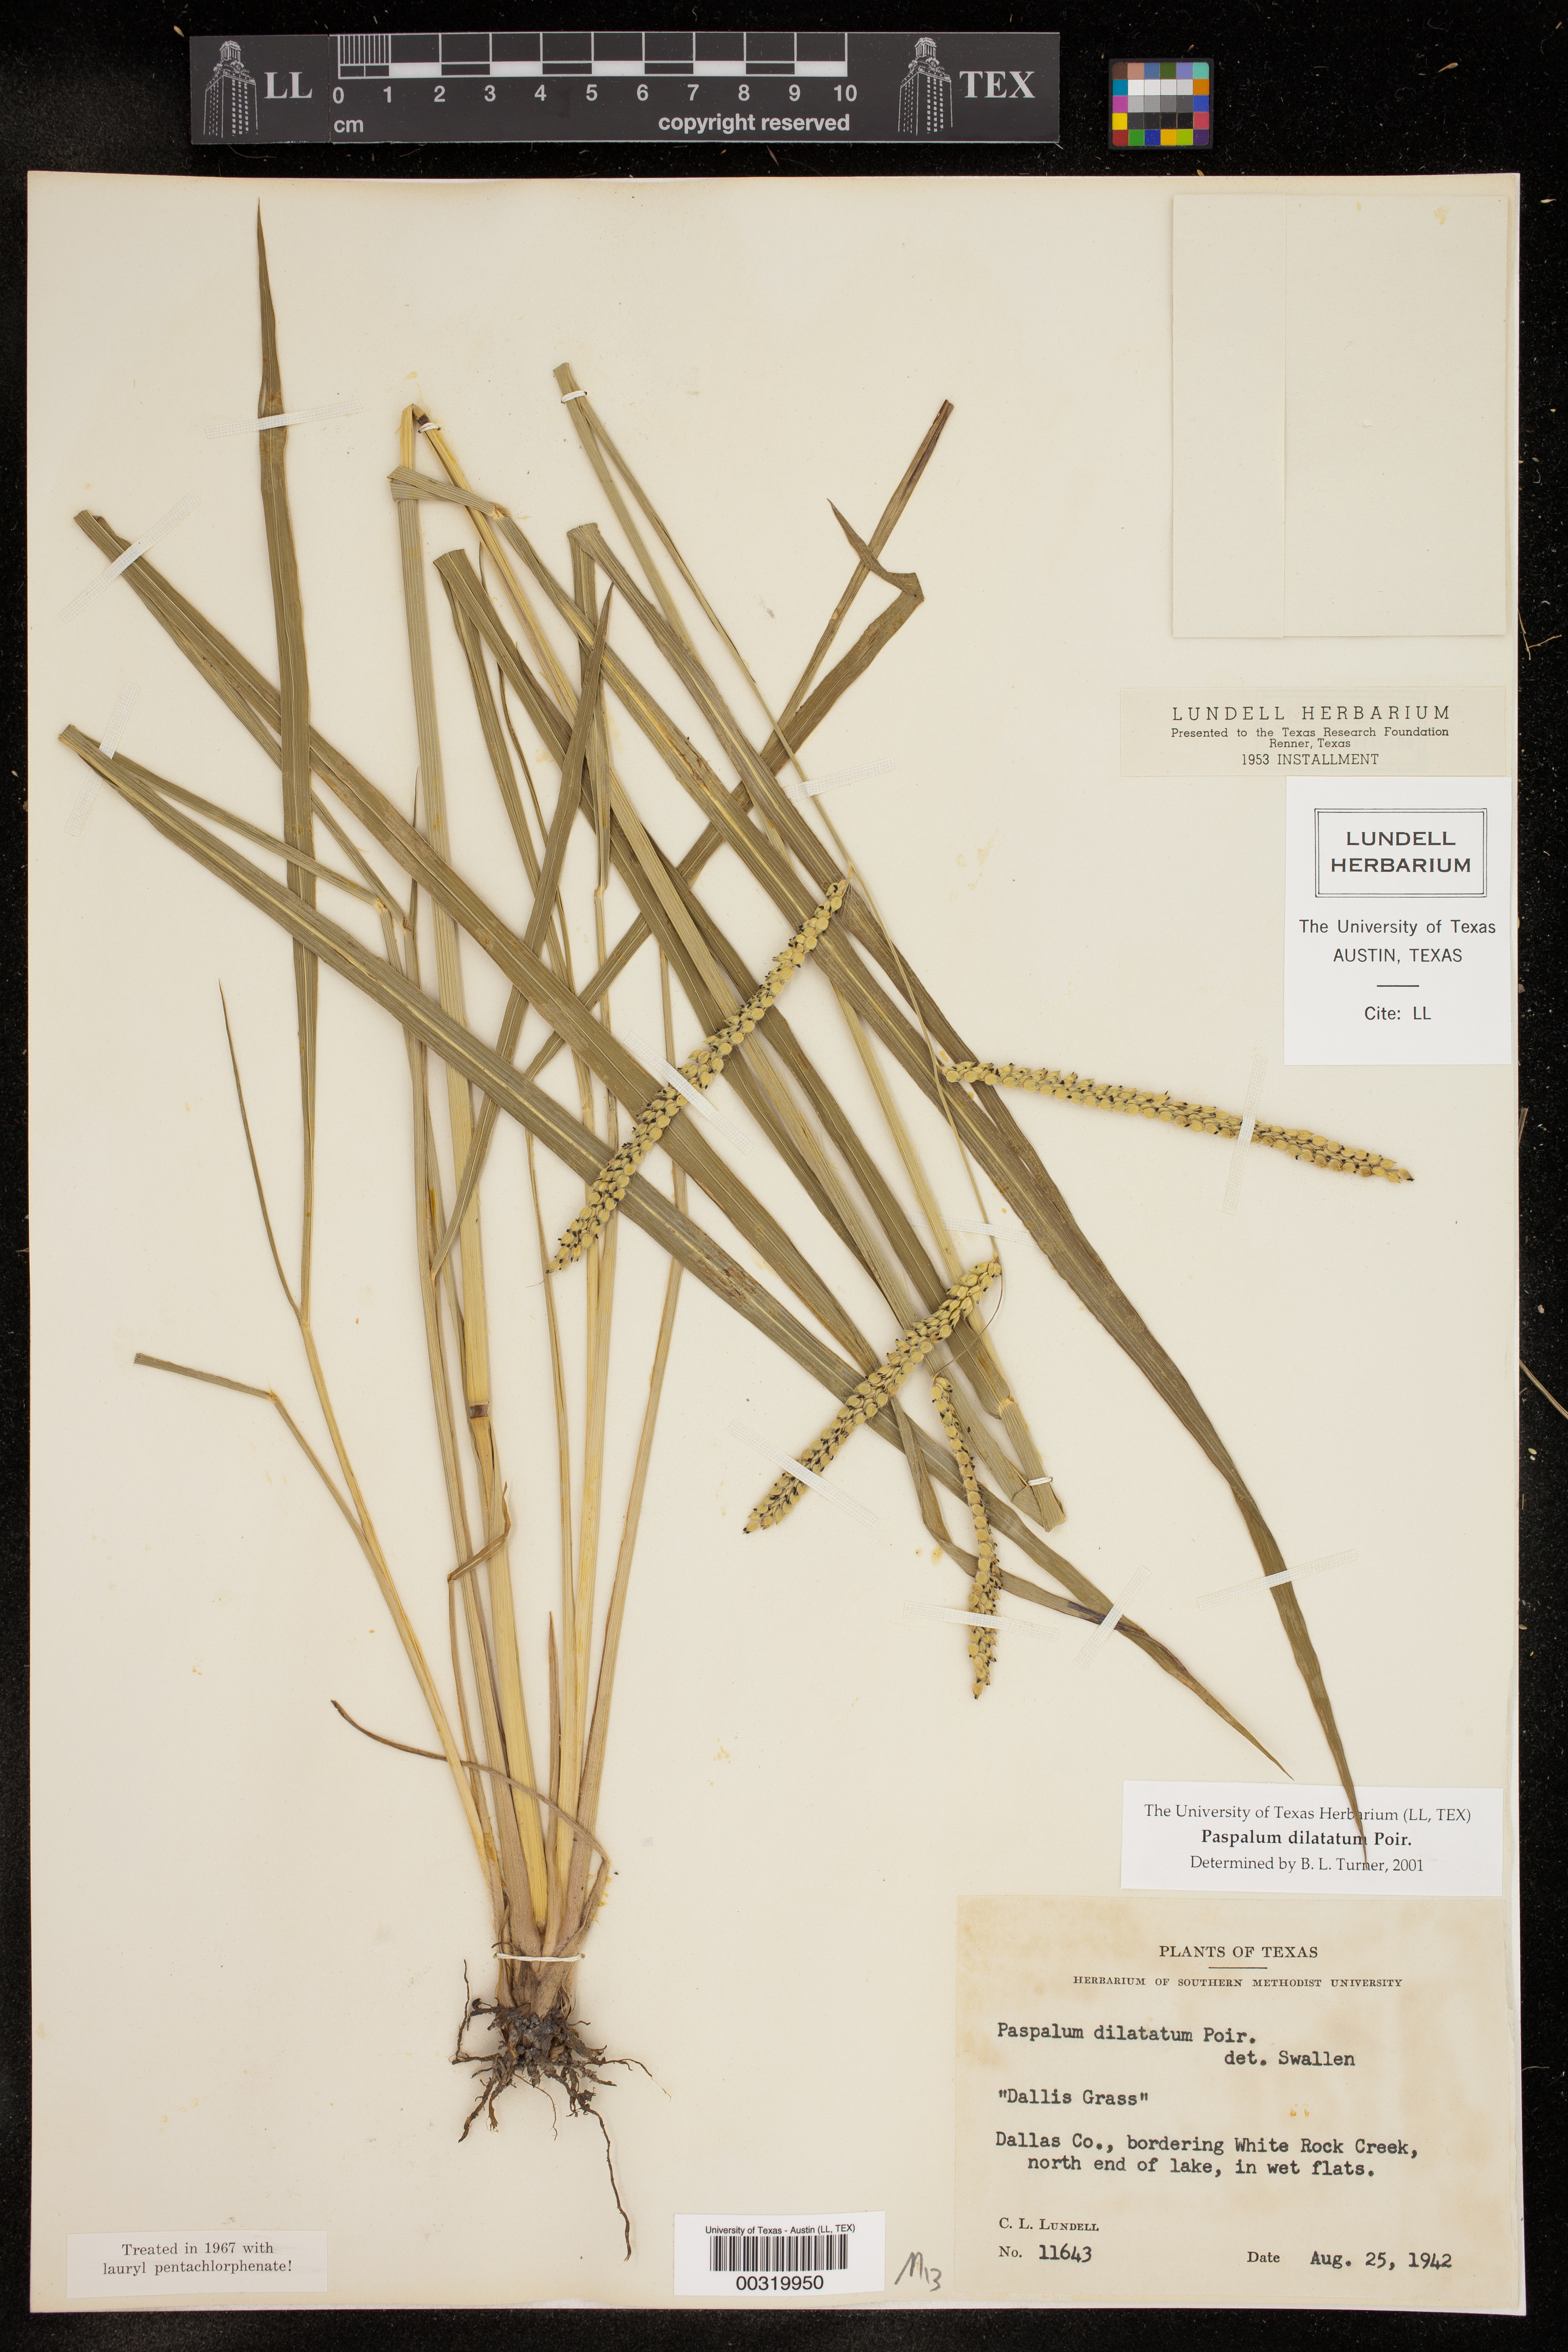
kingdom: Plantae
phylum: Tracheophyta
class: Liliopsida
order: Poales
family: Poaceae
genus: Paspalum
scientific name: Paspalum dilatatum
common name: Dallisgrass
